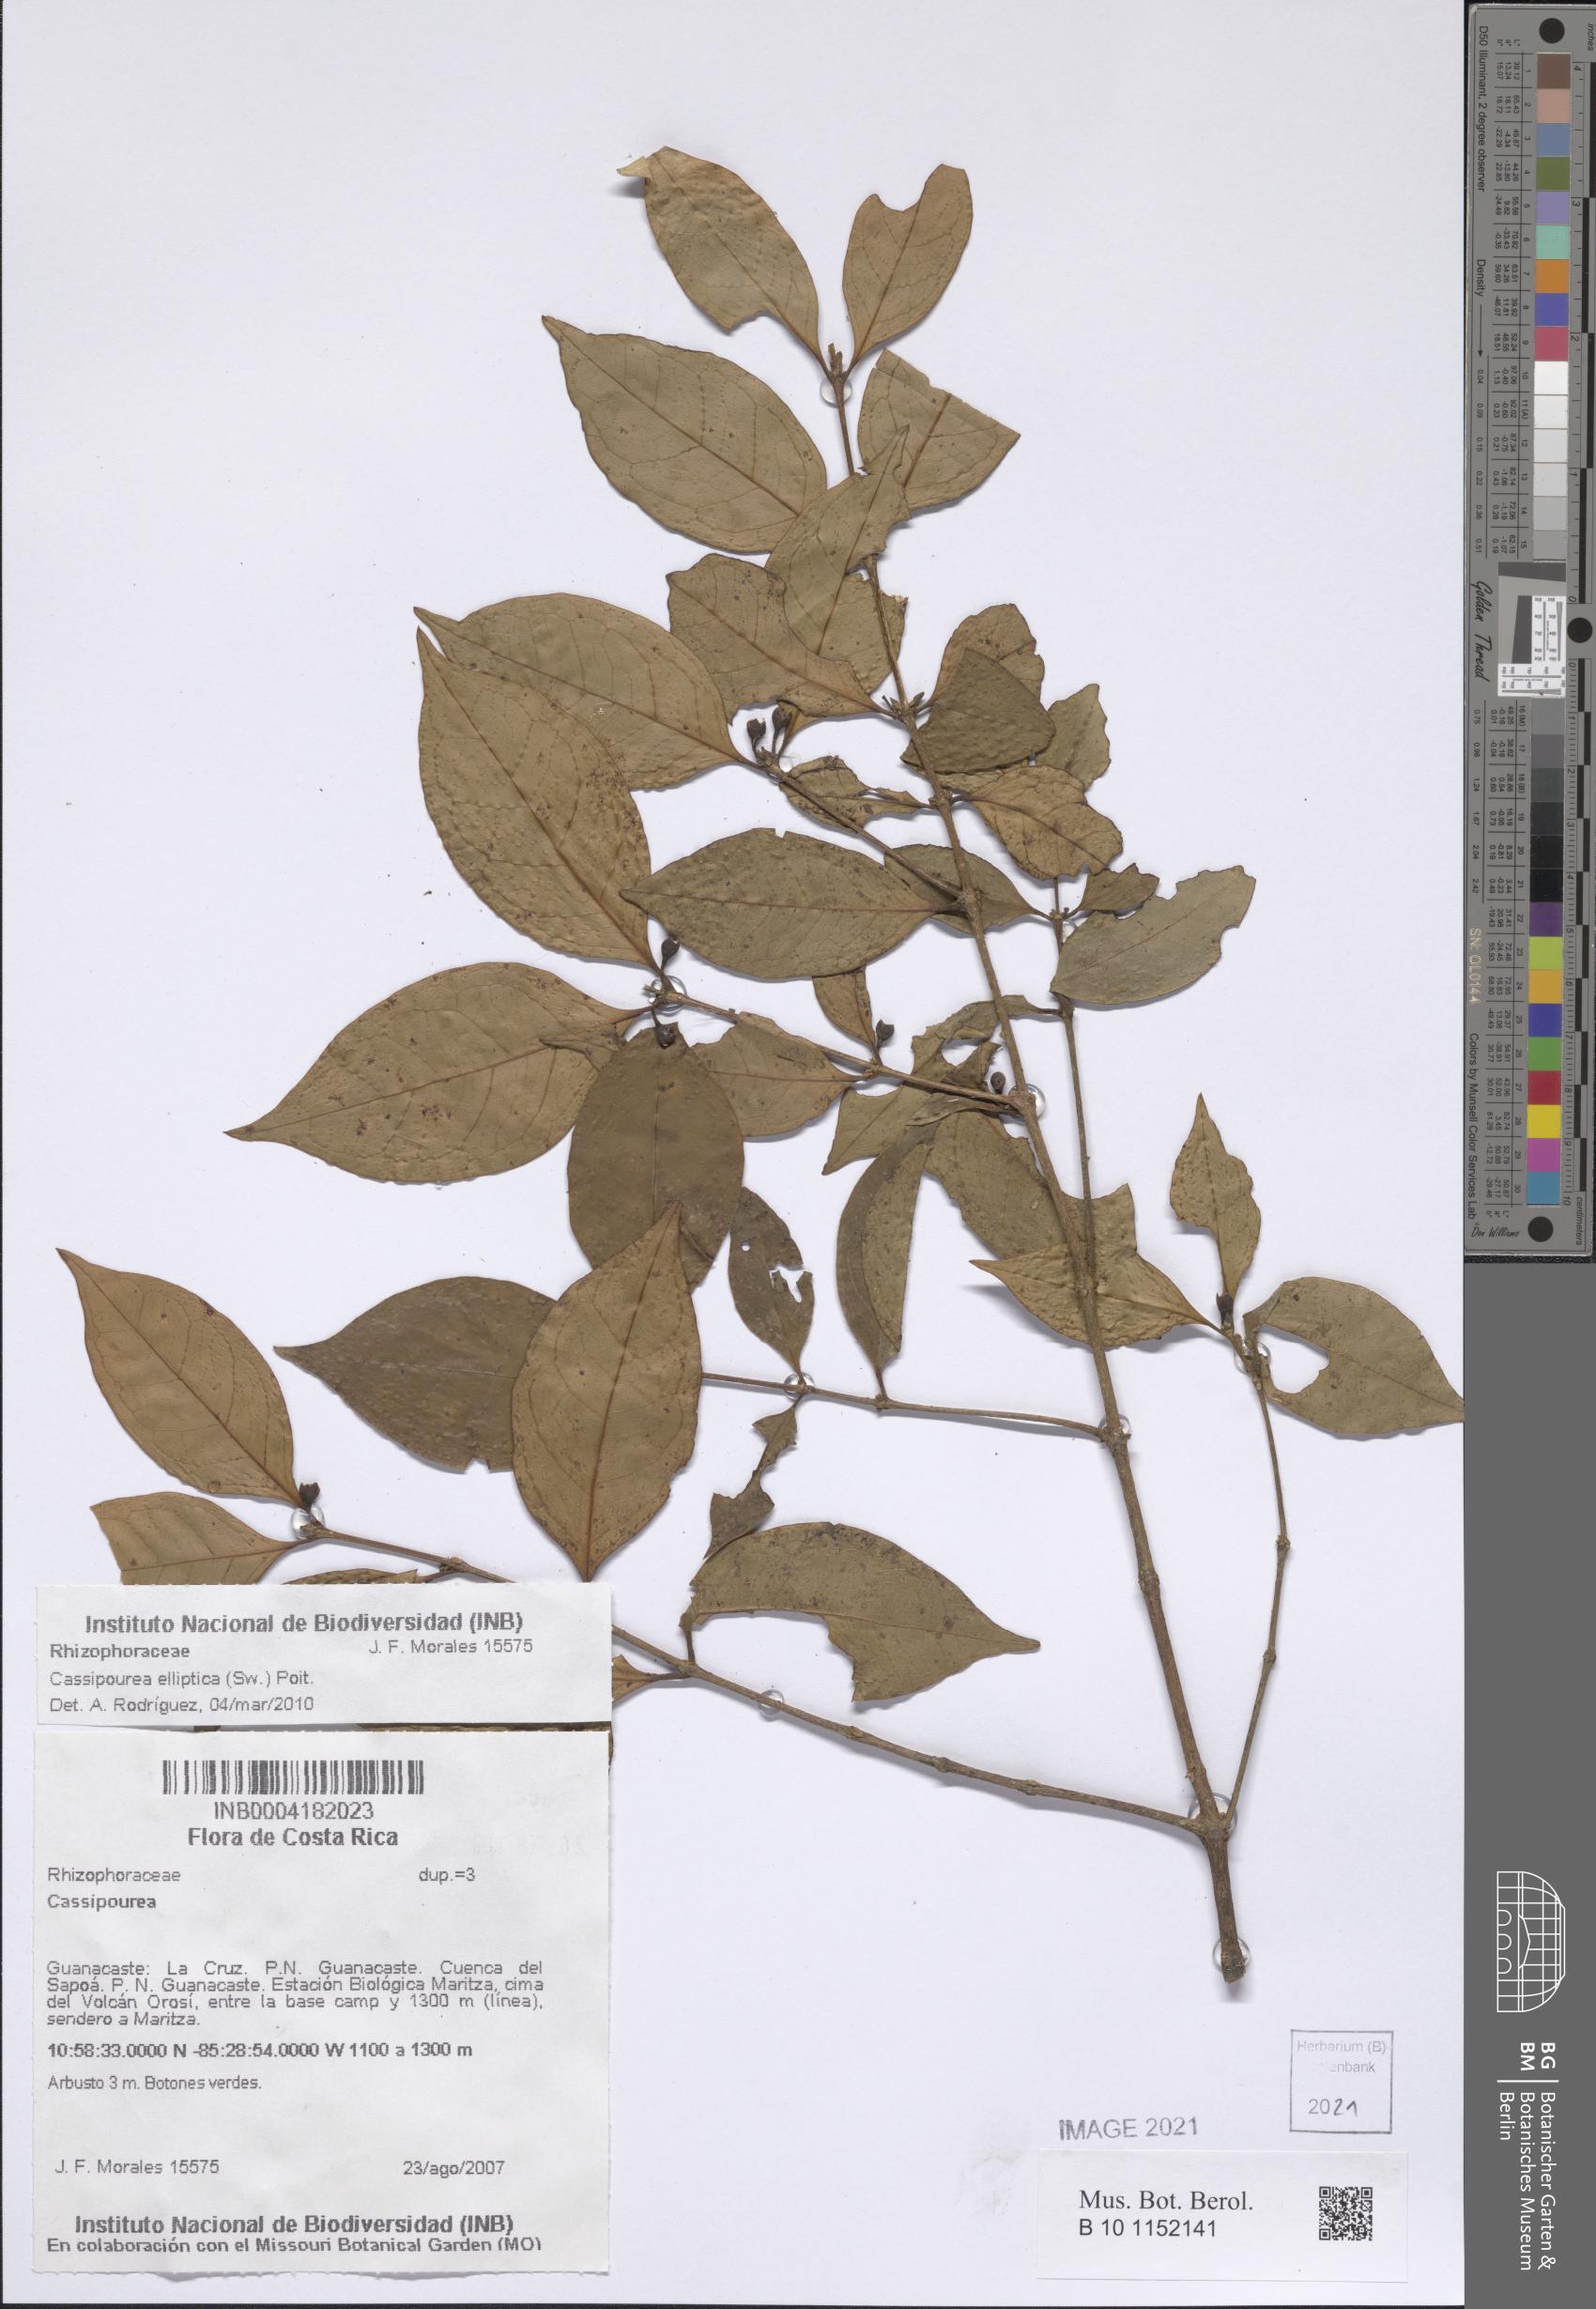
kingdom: Plantae
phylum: Tracheophyta
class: Magnoliopsida
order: Malpighiales
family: Rhizophoraceae
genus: Cassipourea
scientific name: Cassipourea elliptica
